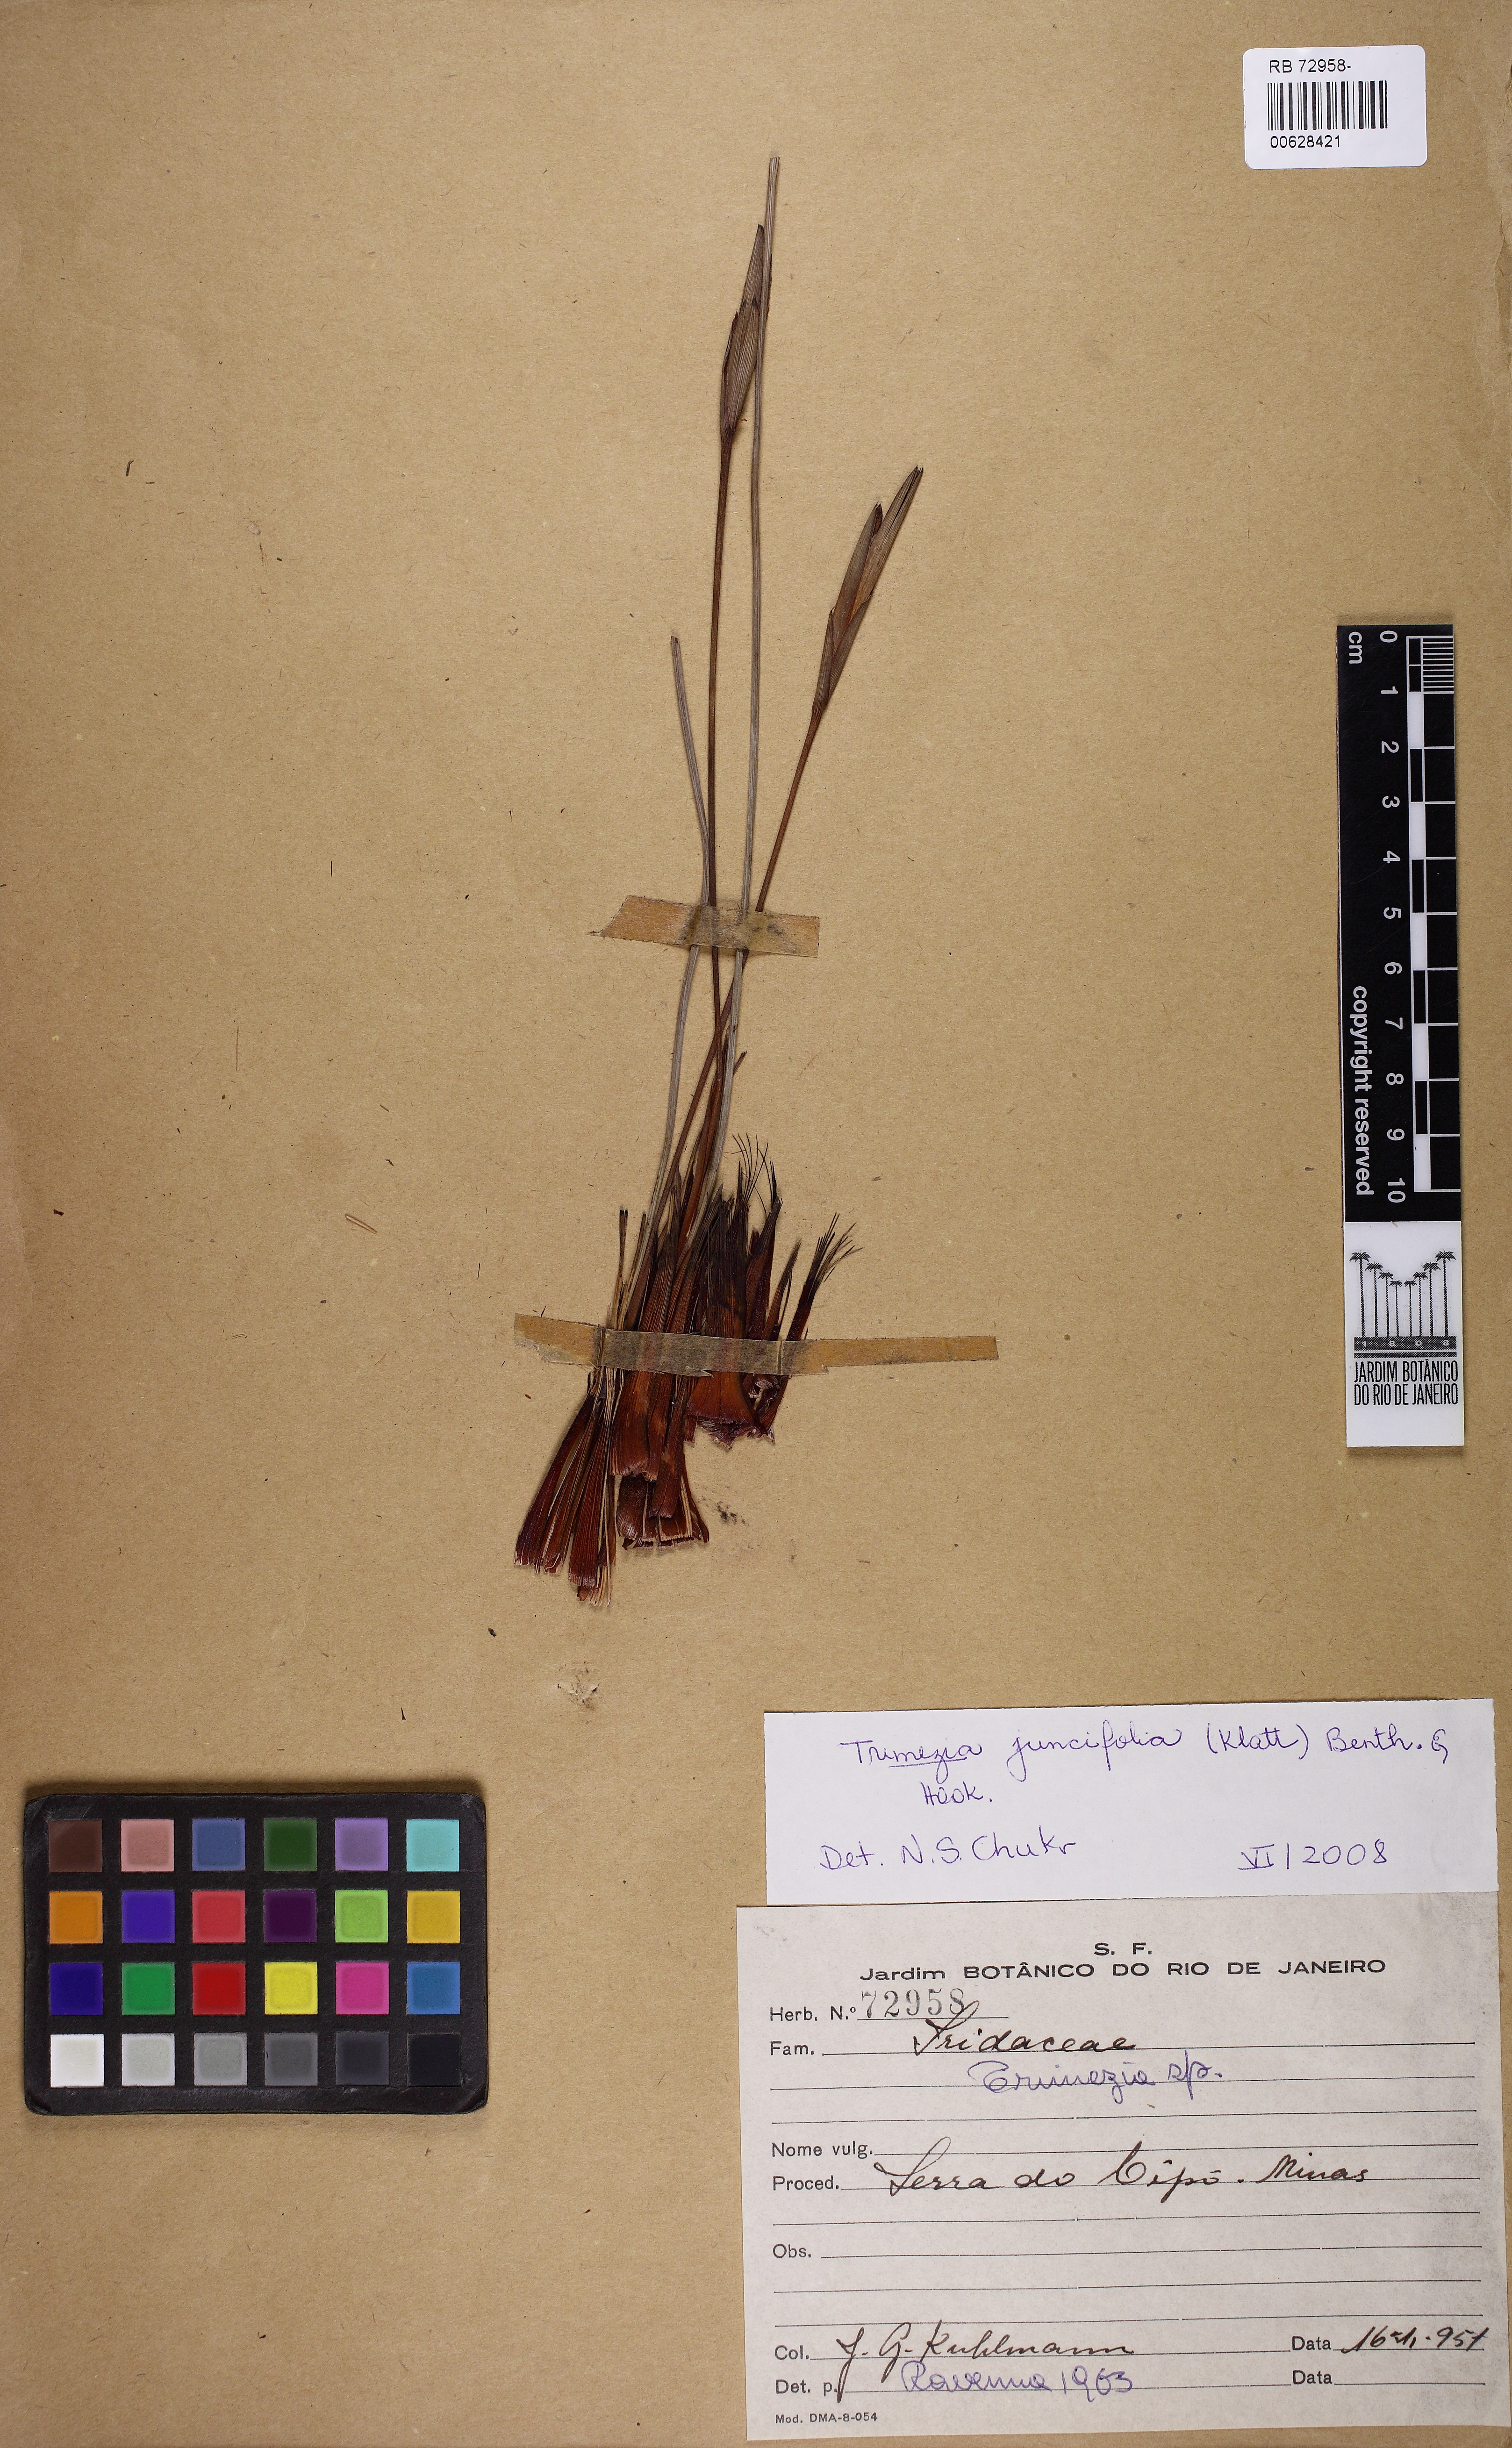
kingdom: Plantae
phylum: Tracheophyta
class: Liliopsida
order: Asparagales
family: Iridaceae
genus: Trimezia
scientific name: Trimezia juncifolia
